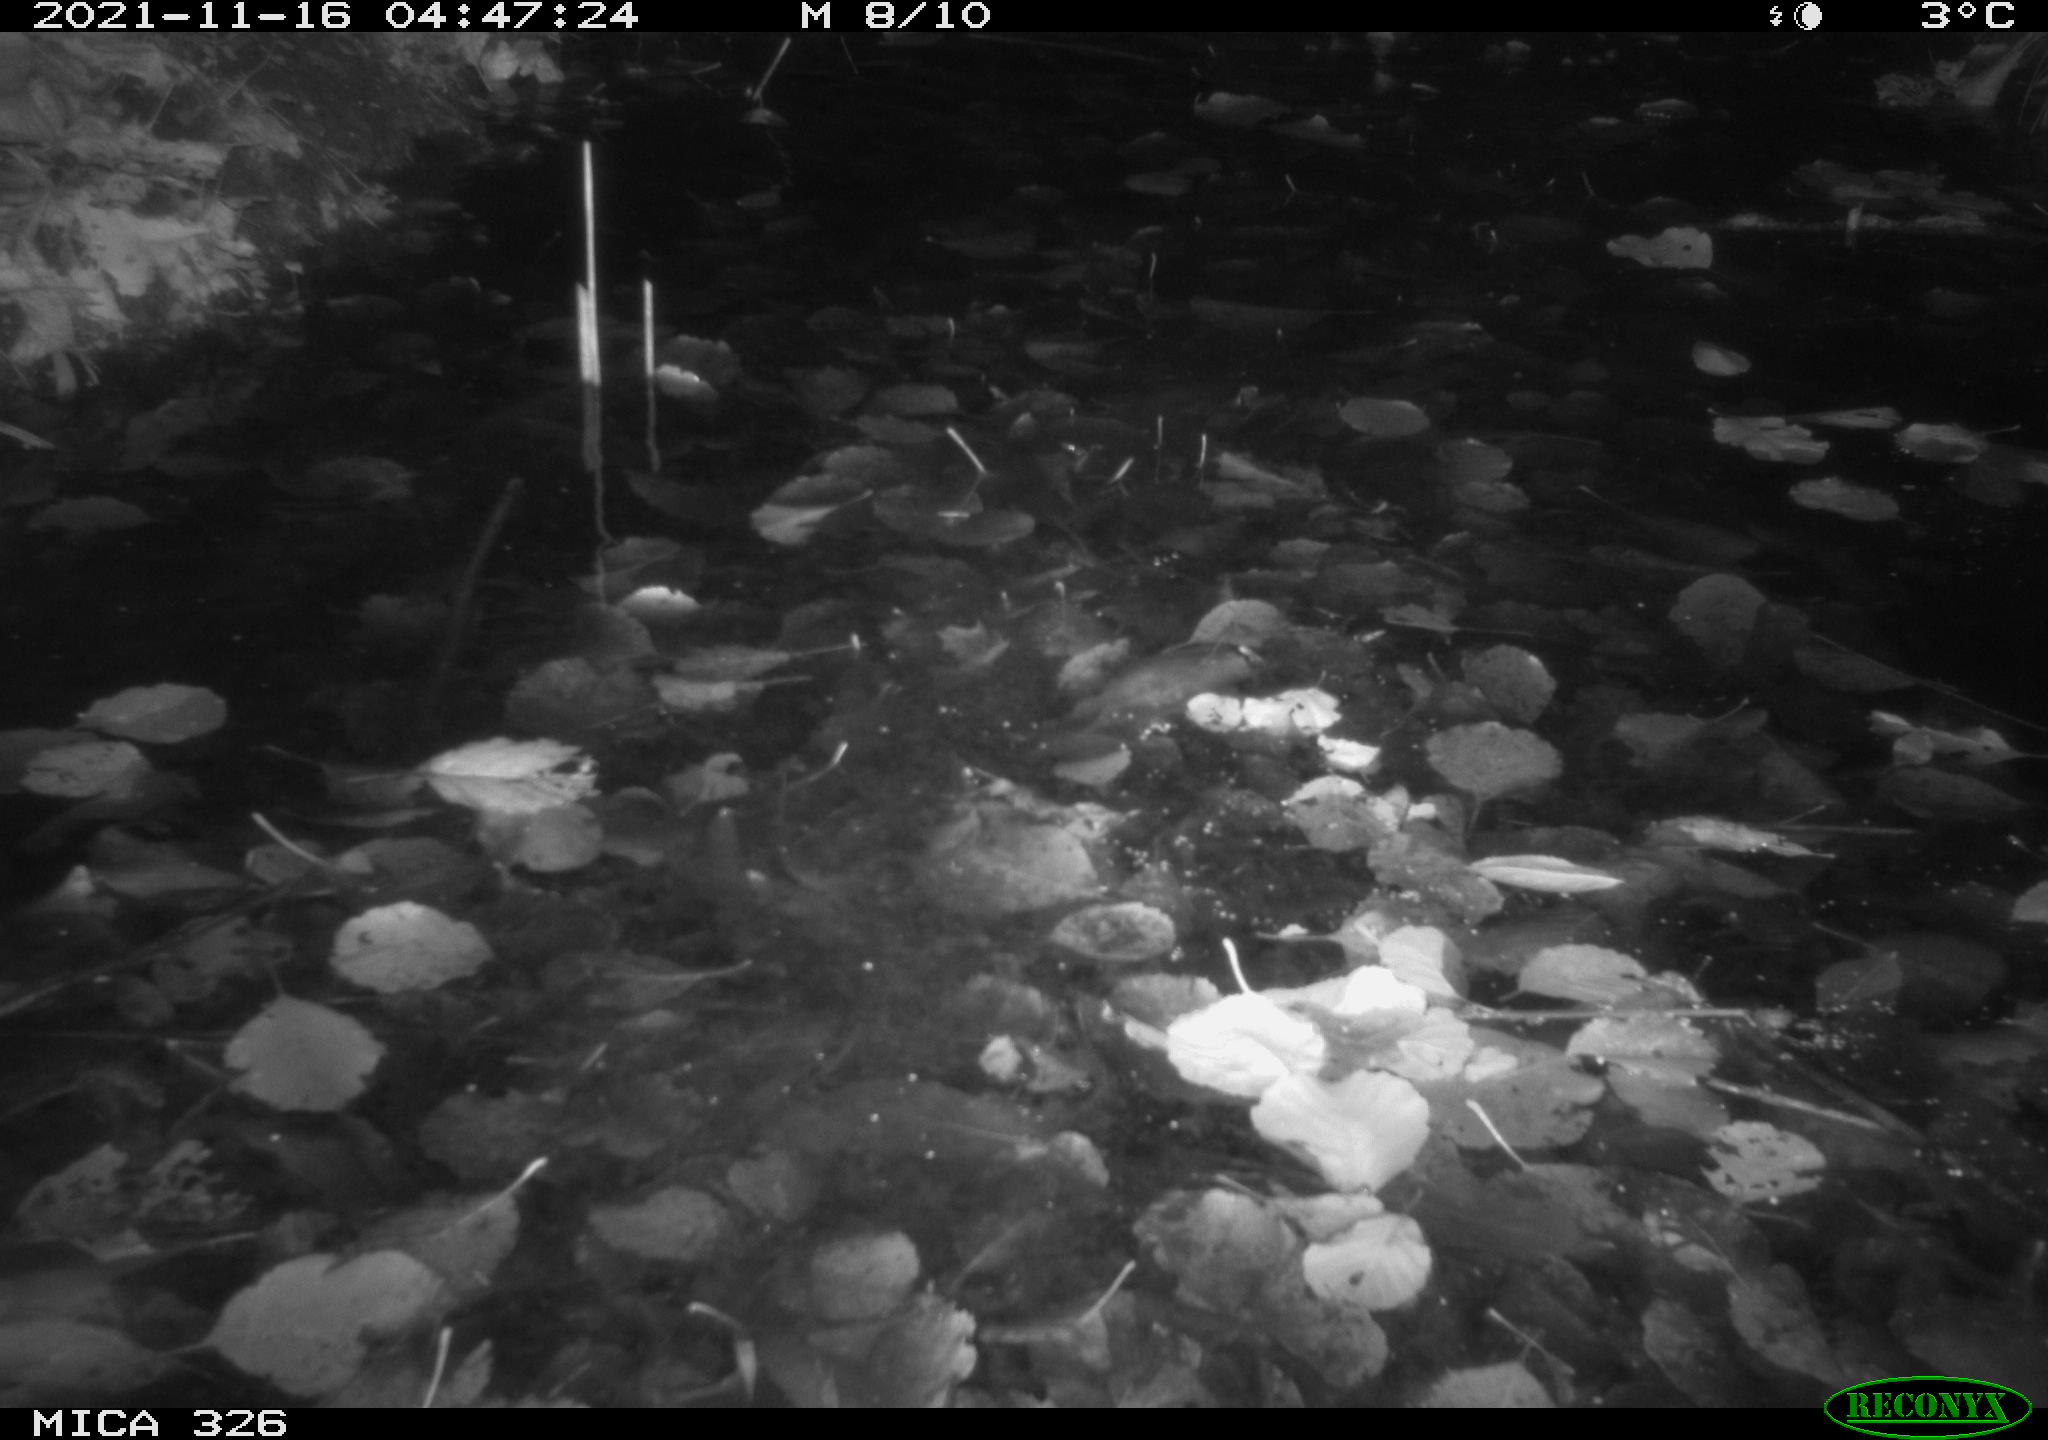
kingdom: Animalia
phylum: Chordata
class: Mammalia
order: Rodentia
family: Myocastoridae
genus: Myocastor
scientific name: Myocastor coypus
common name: Coypu
